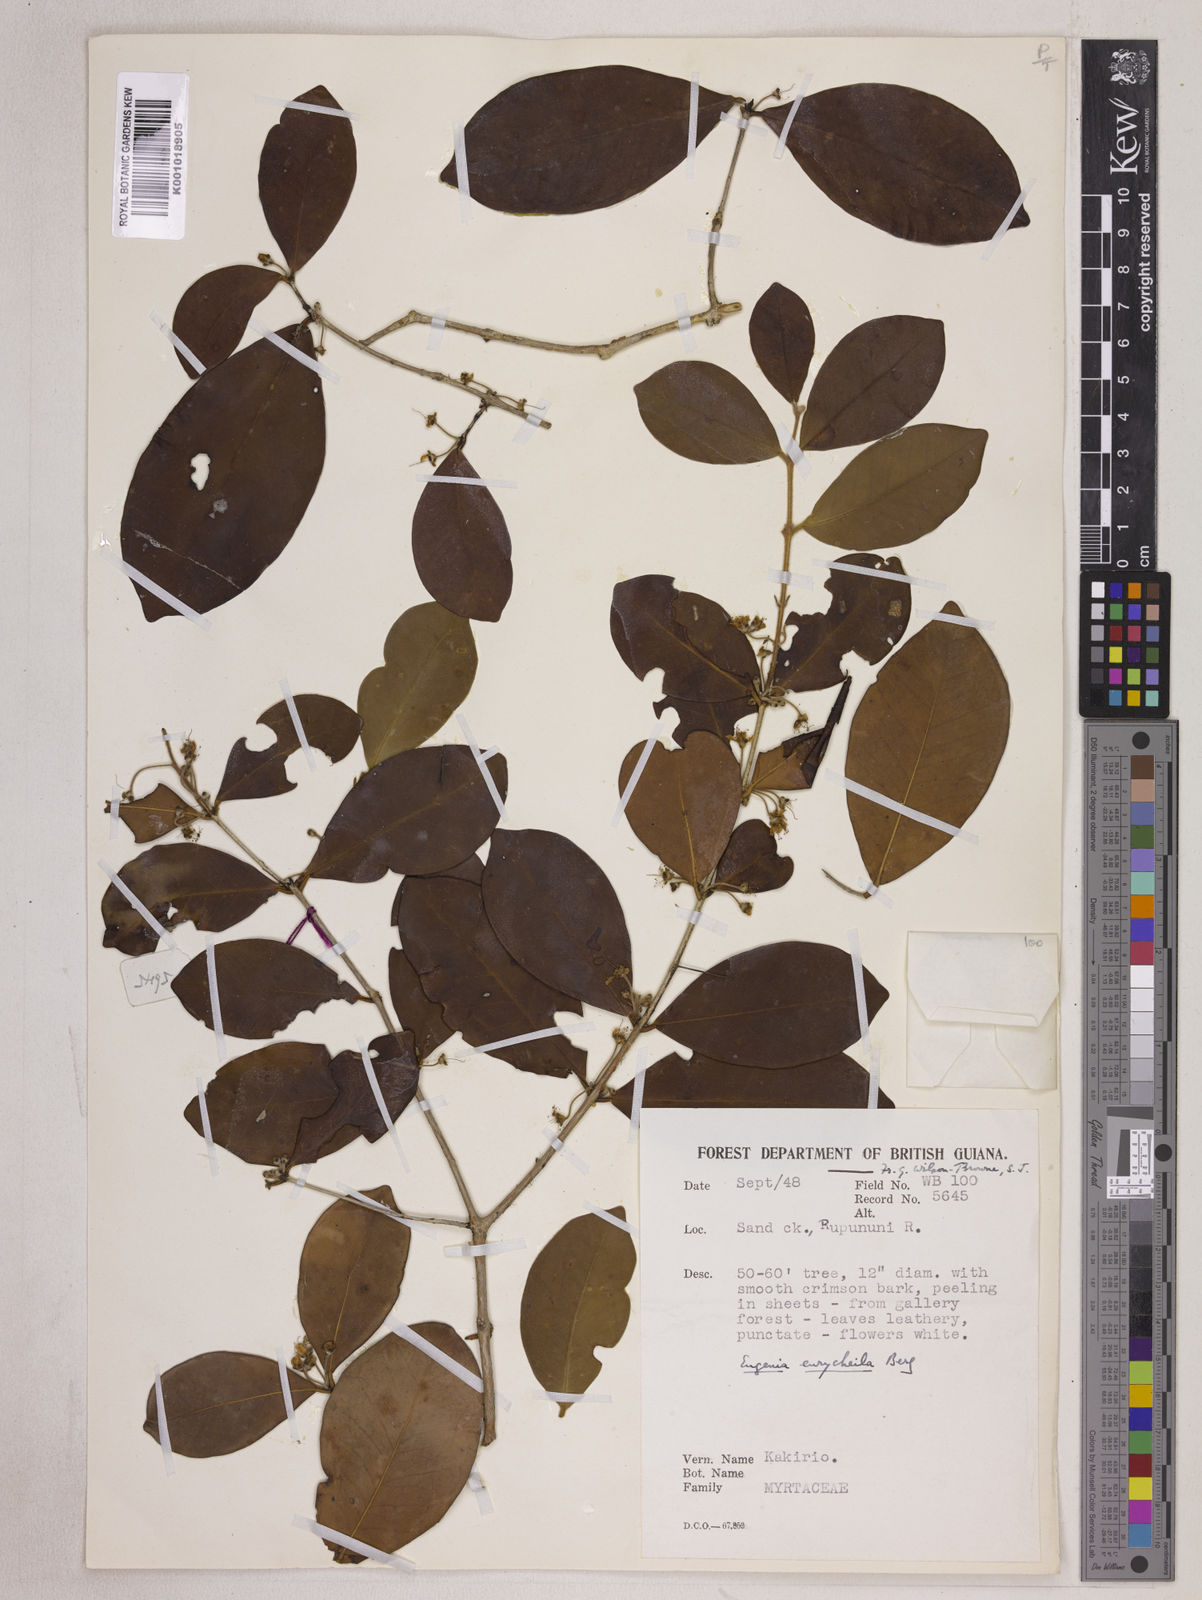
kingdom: Plantae
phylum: Tracheophyta
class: Magnoliopsida
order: Myrtales
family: Myrtaceae
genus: Eugenia
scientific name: Eugenia eurycheila
